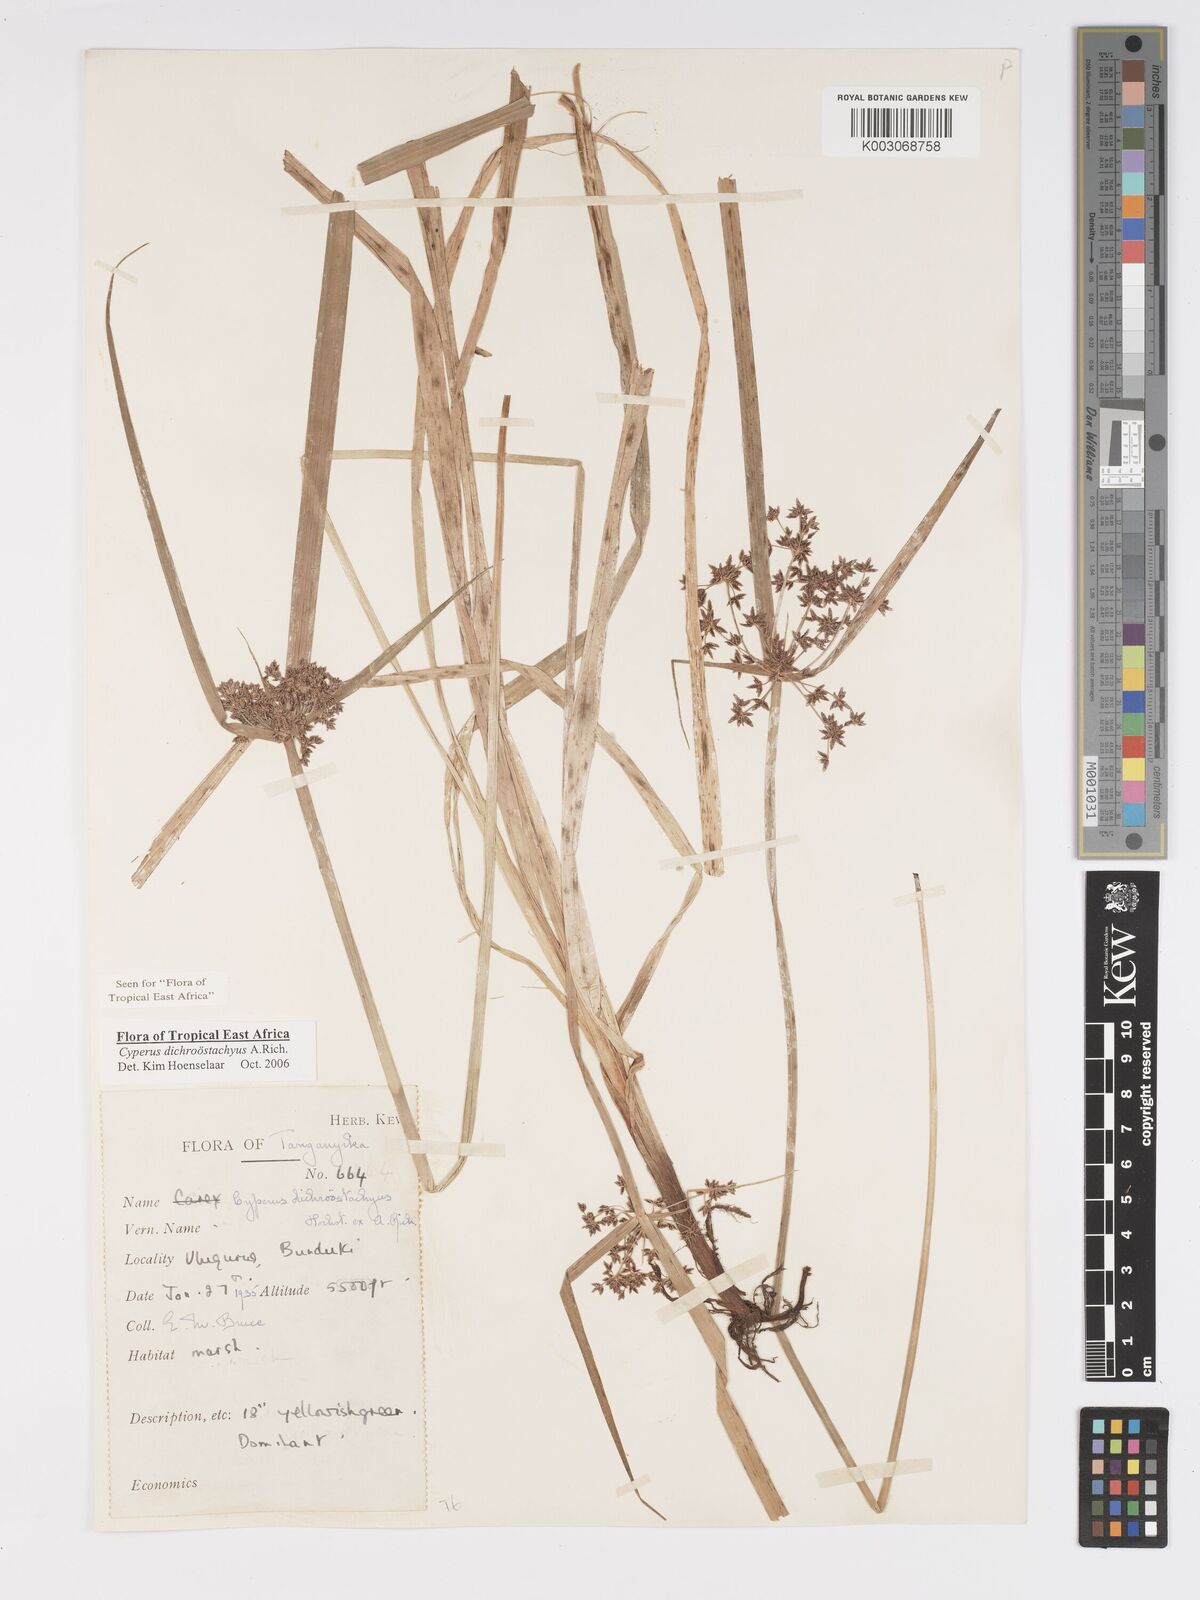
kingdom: Plantae
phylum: Tracheophyta
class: Liliopsida
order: Poales
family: Cyperaceae
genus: Cyperus
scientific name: Cyperus dichrostachyus
